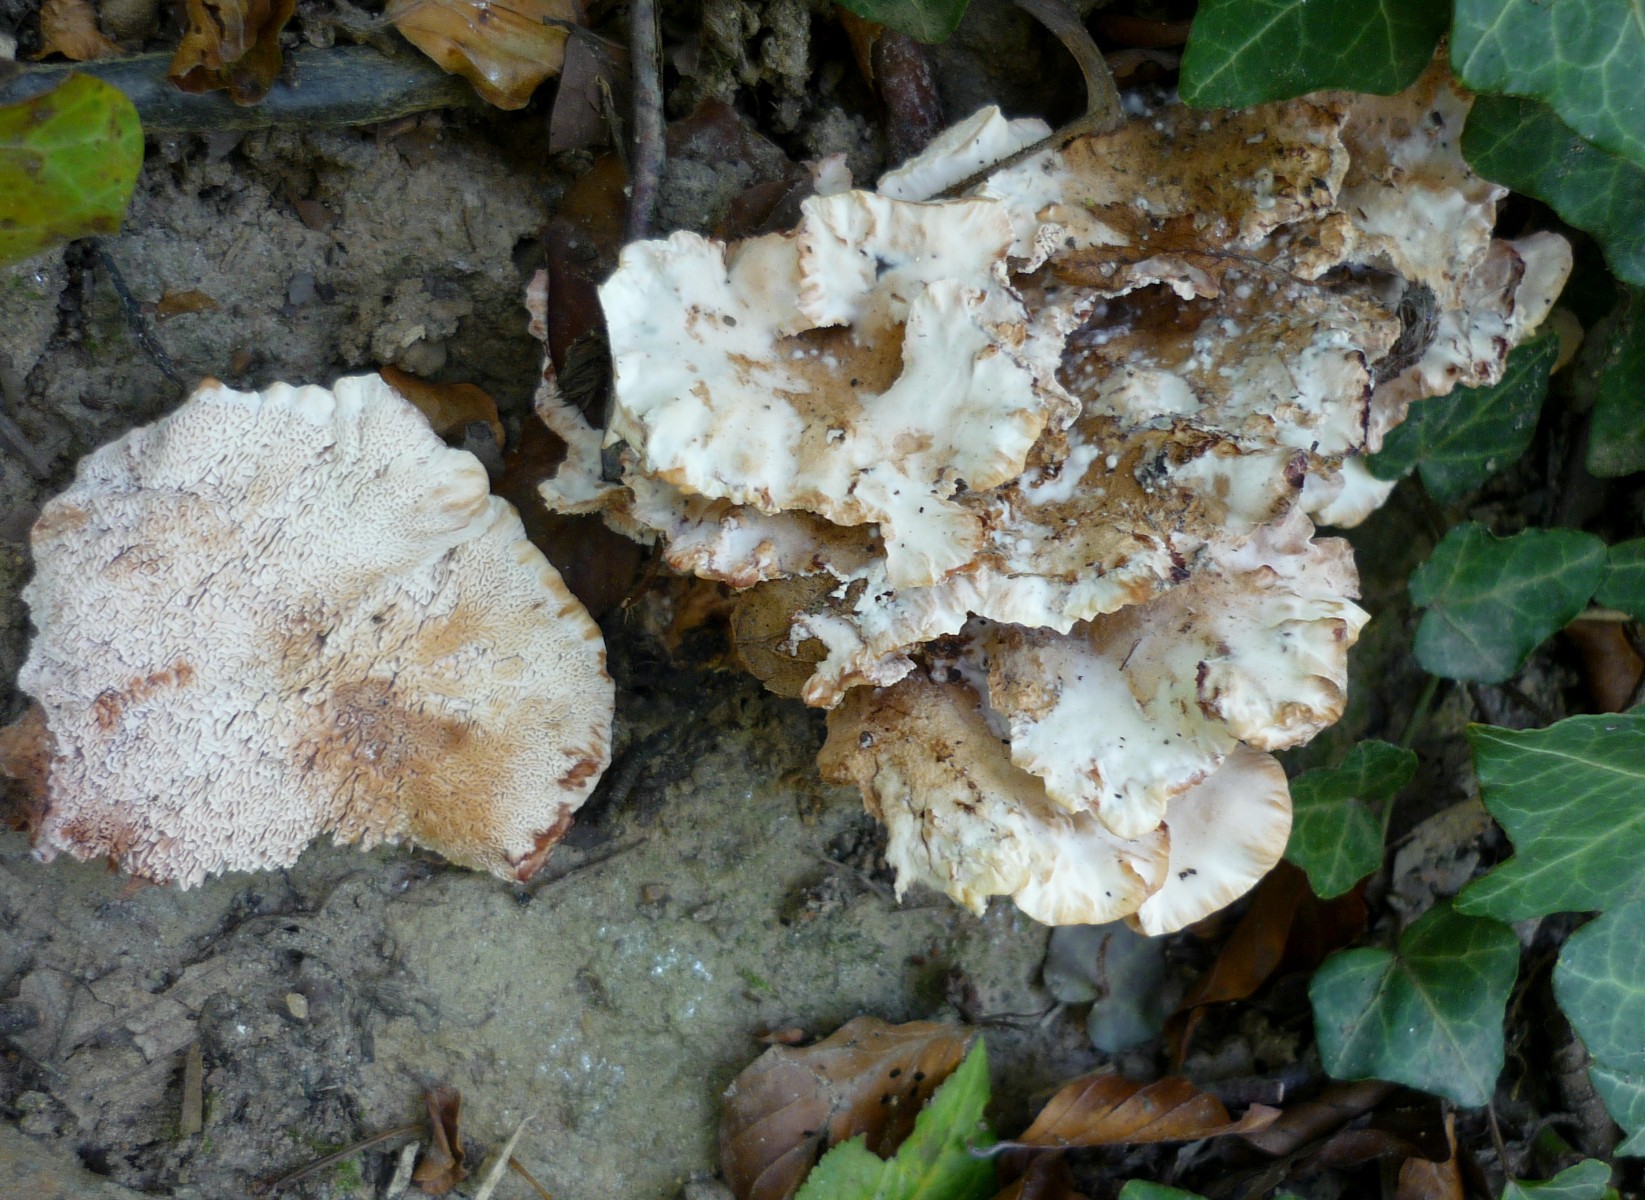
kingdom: Fungi
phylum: Basidiomycota
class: Agaricomycetes
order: Polyporales
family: Podoscyphaceae
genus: Abortiporus
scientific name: Abortiporus biennis
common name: rødmende pjalteporesvamp
